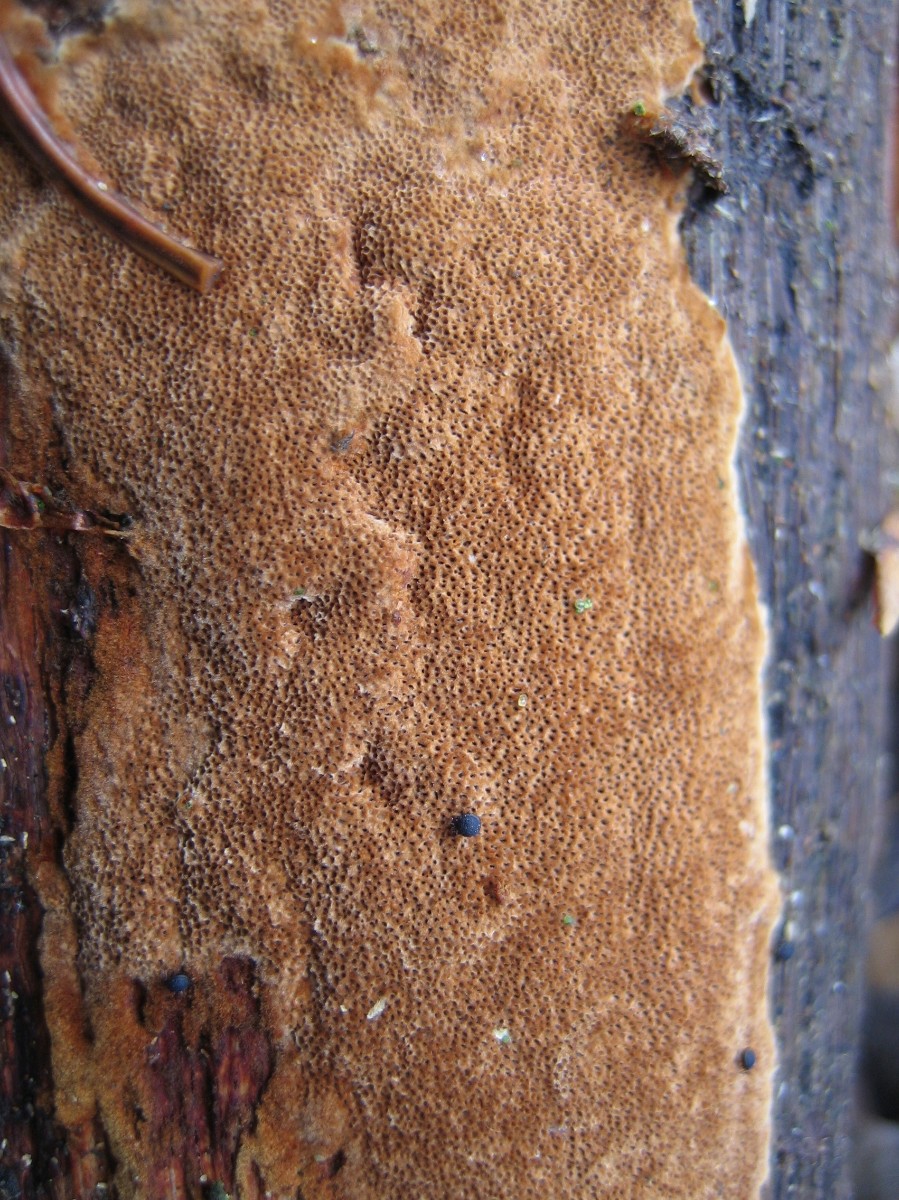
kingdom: Fungi
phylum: Basidiomycota
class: Agaricomycetes
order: Hymenochaetales
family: Hymenochaetaceae
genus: Fuscoporia
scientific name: Fuscoporia ferrea
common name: skorpe-ildporesvamp
